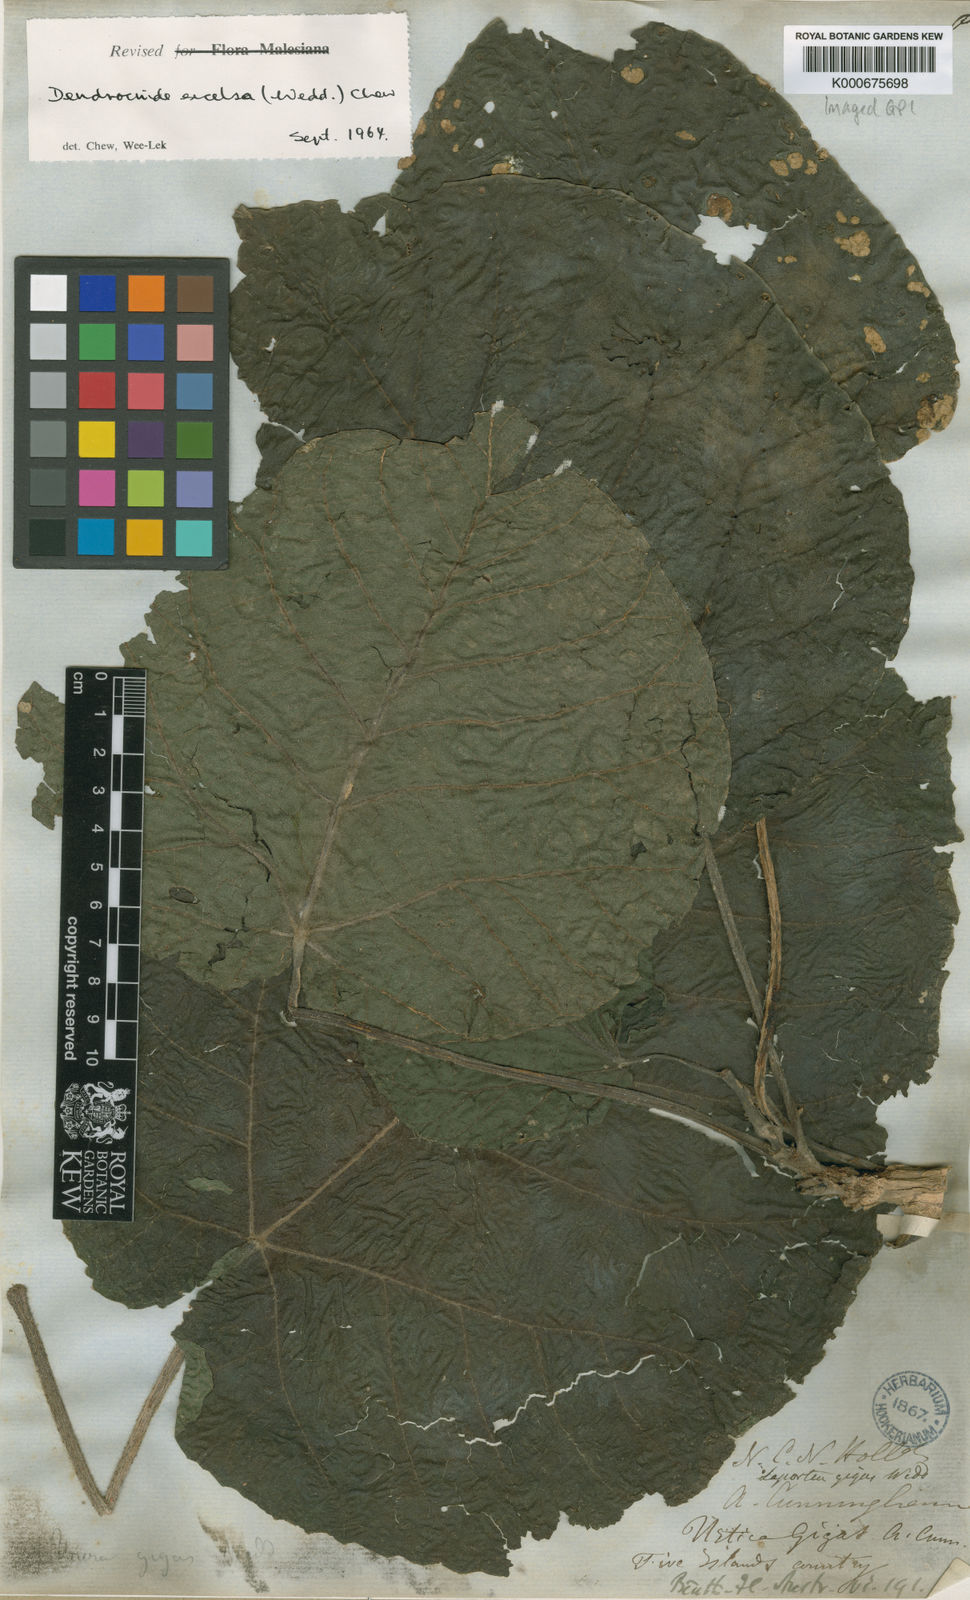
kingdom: Plantae
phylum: Tracheophyta
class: Magnoliopsida
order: Rosales
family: Urticaceae
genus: Dendrocnide
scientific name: Dendrocnide excelsa
